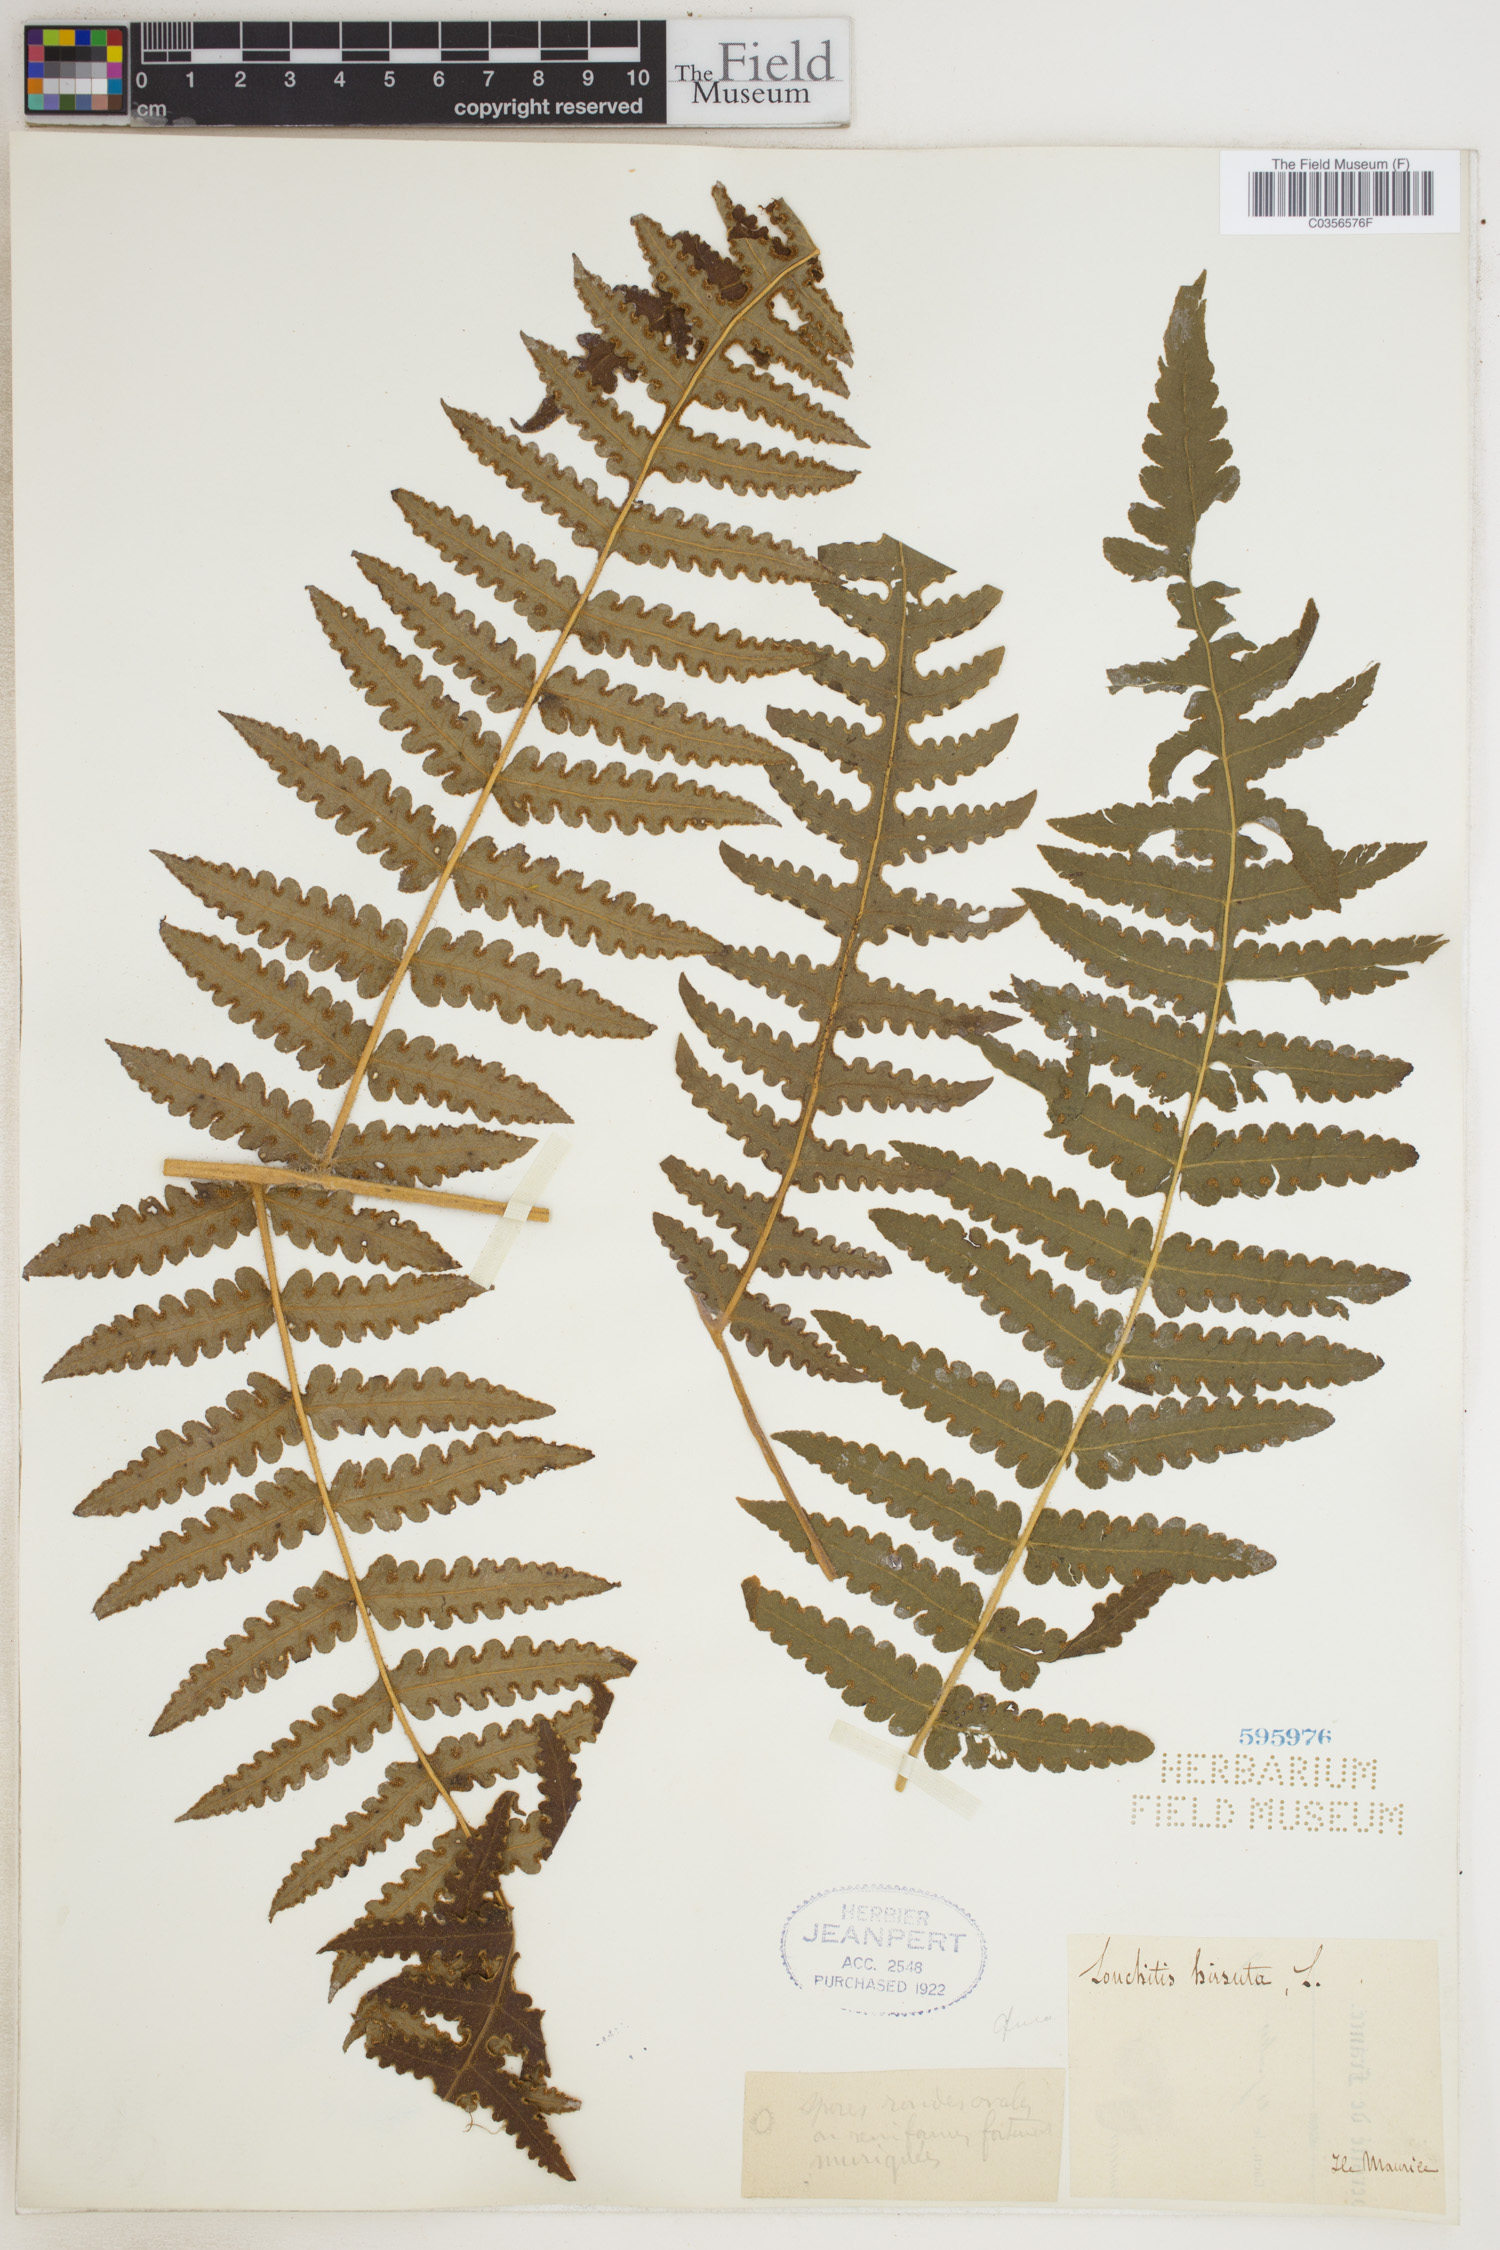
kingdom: Plantae
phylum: Tracheophyta
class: Polypodiopsida
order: Polypodiales
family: Lonchitidaceae
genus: Lonchitis
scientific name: Lonchitis hirsuta
